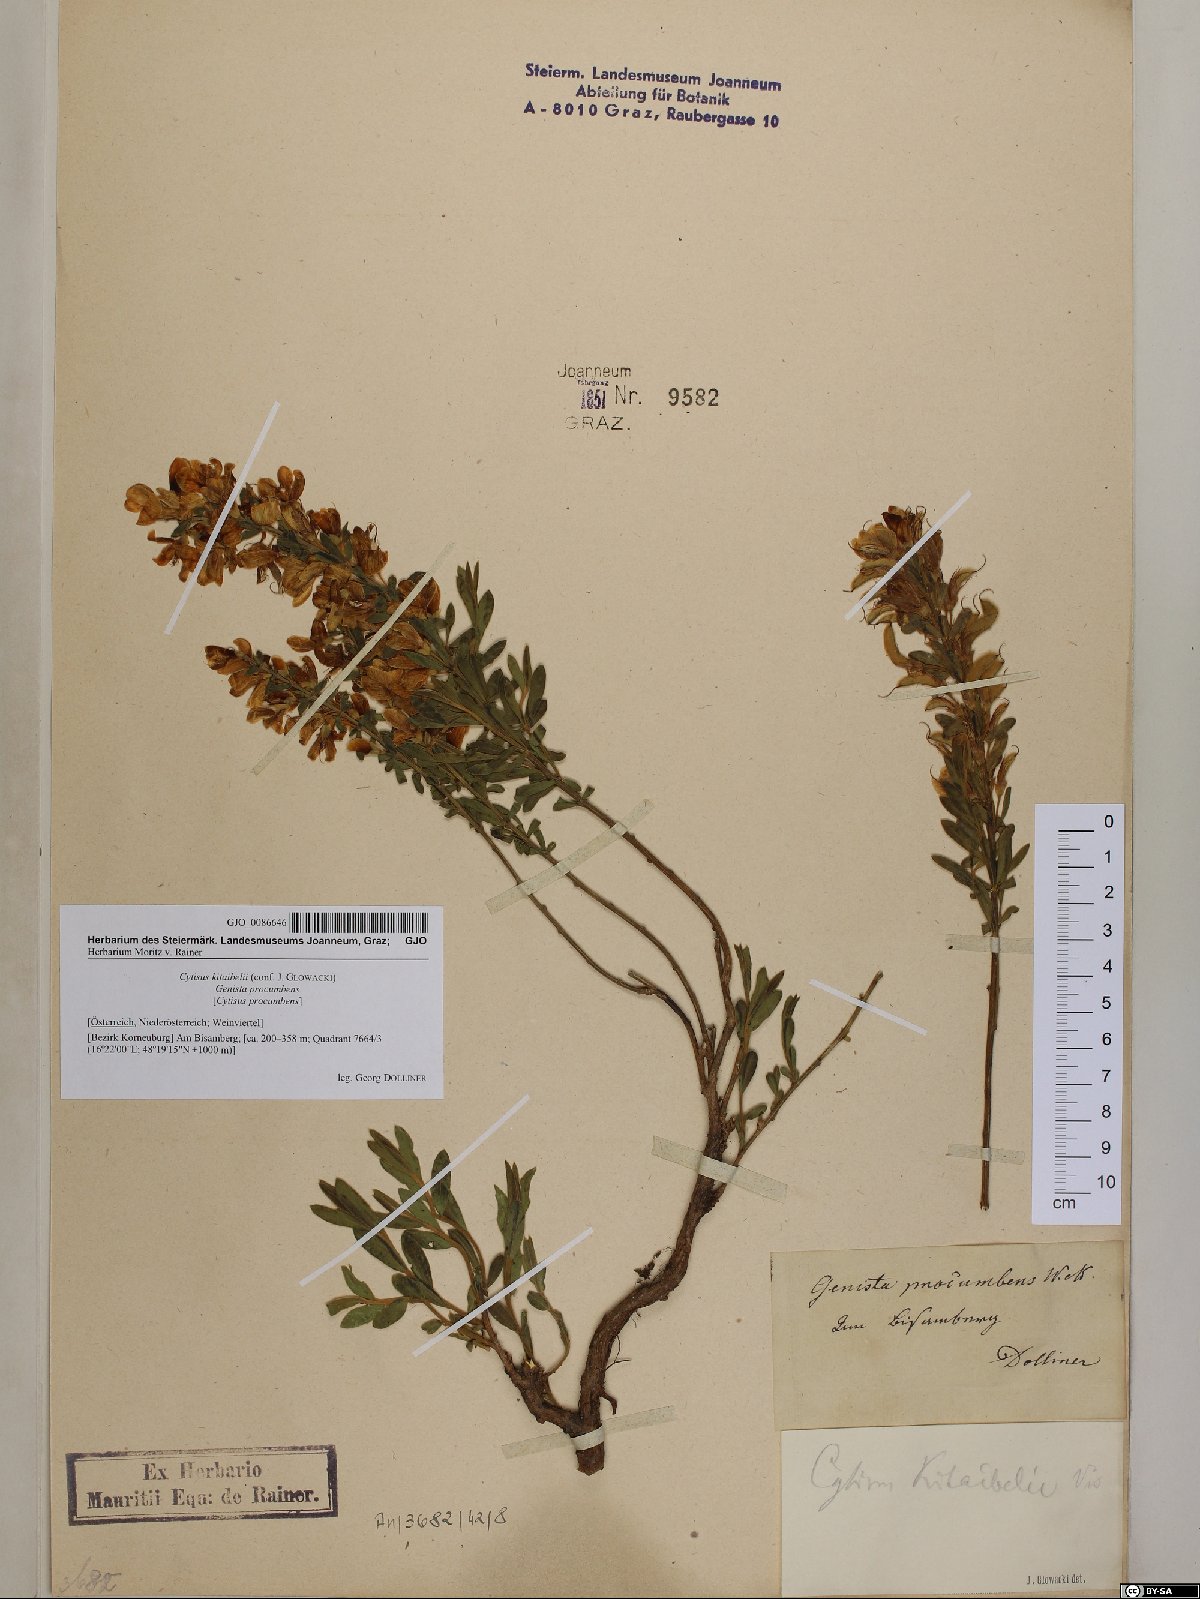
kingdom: Plantae
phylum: Tracheophyta
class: Magnoliopsida
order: Fabales
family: Fabaceae
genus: Cytisus
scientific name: Cytisus procumbens
